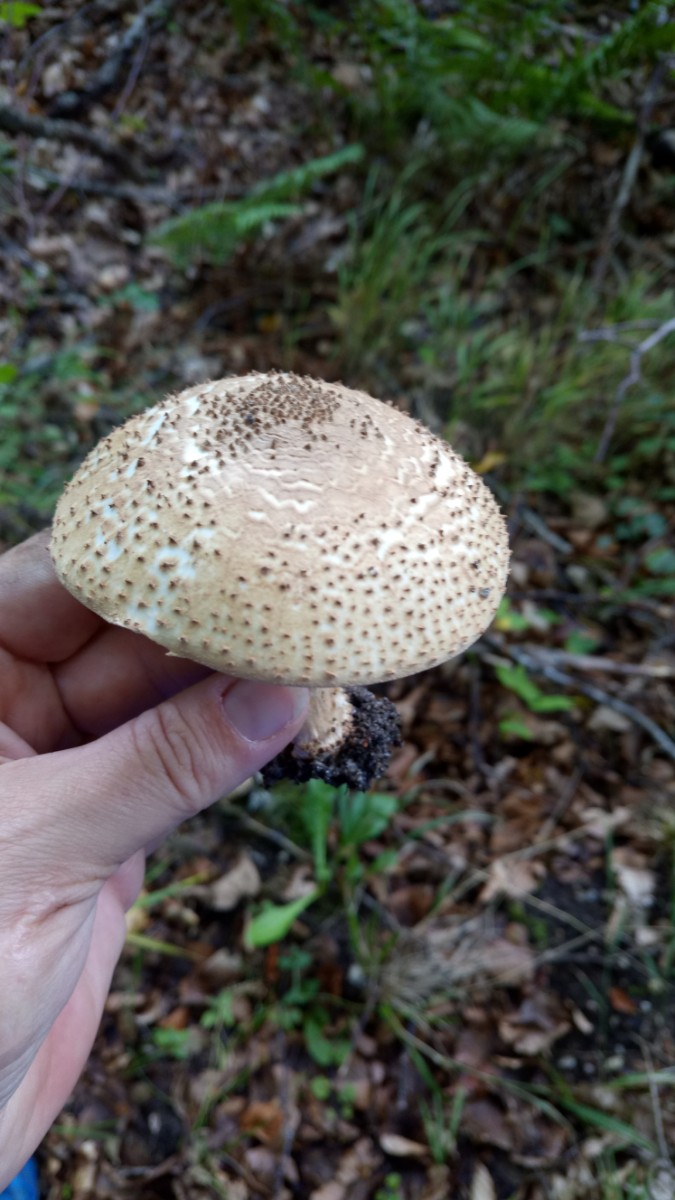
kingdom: Fungi
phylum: Basidiomycota
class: Agaricomycetes
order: Agaricales
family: Agaricaceae
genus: Echinoderma
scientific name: Echinoderma asperum
